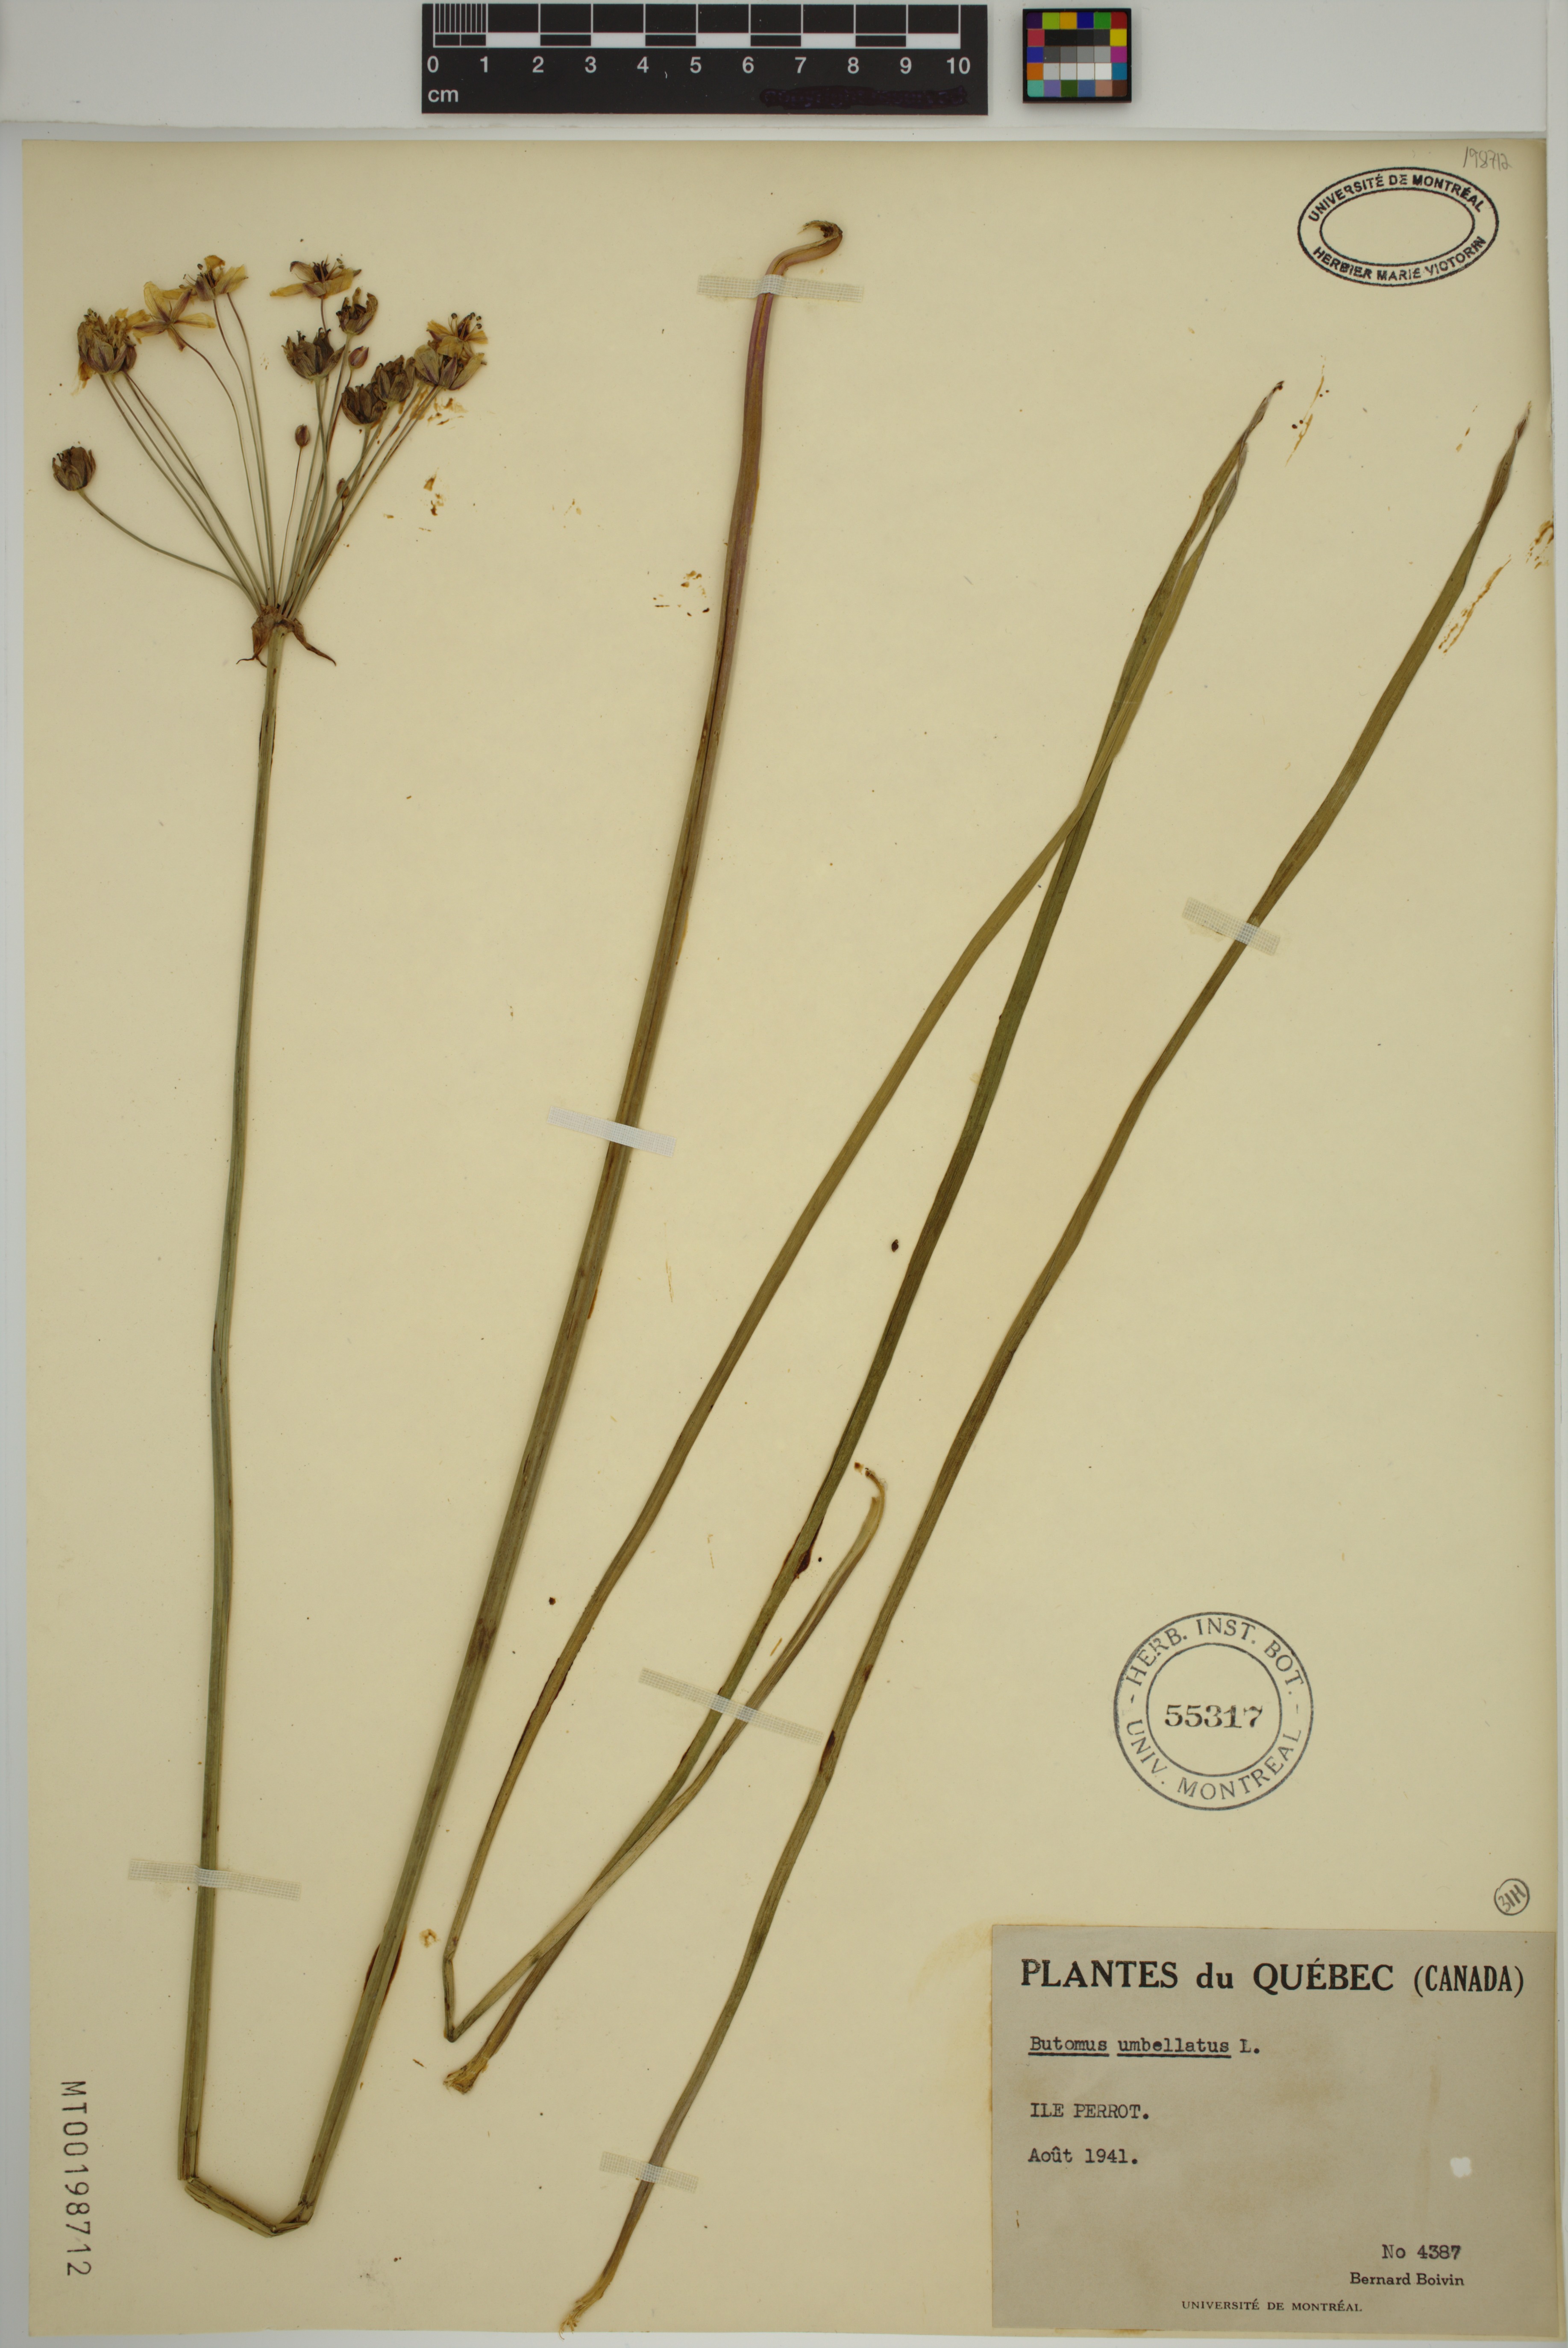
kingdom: Plantae
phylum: Tracheophyta
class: Liliopsida
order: Alismatales
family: Butomaceae
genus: Butomus
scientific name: Butomus umbellatus
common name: Flowering-rush
